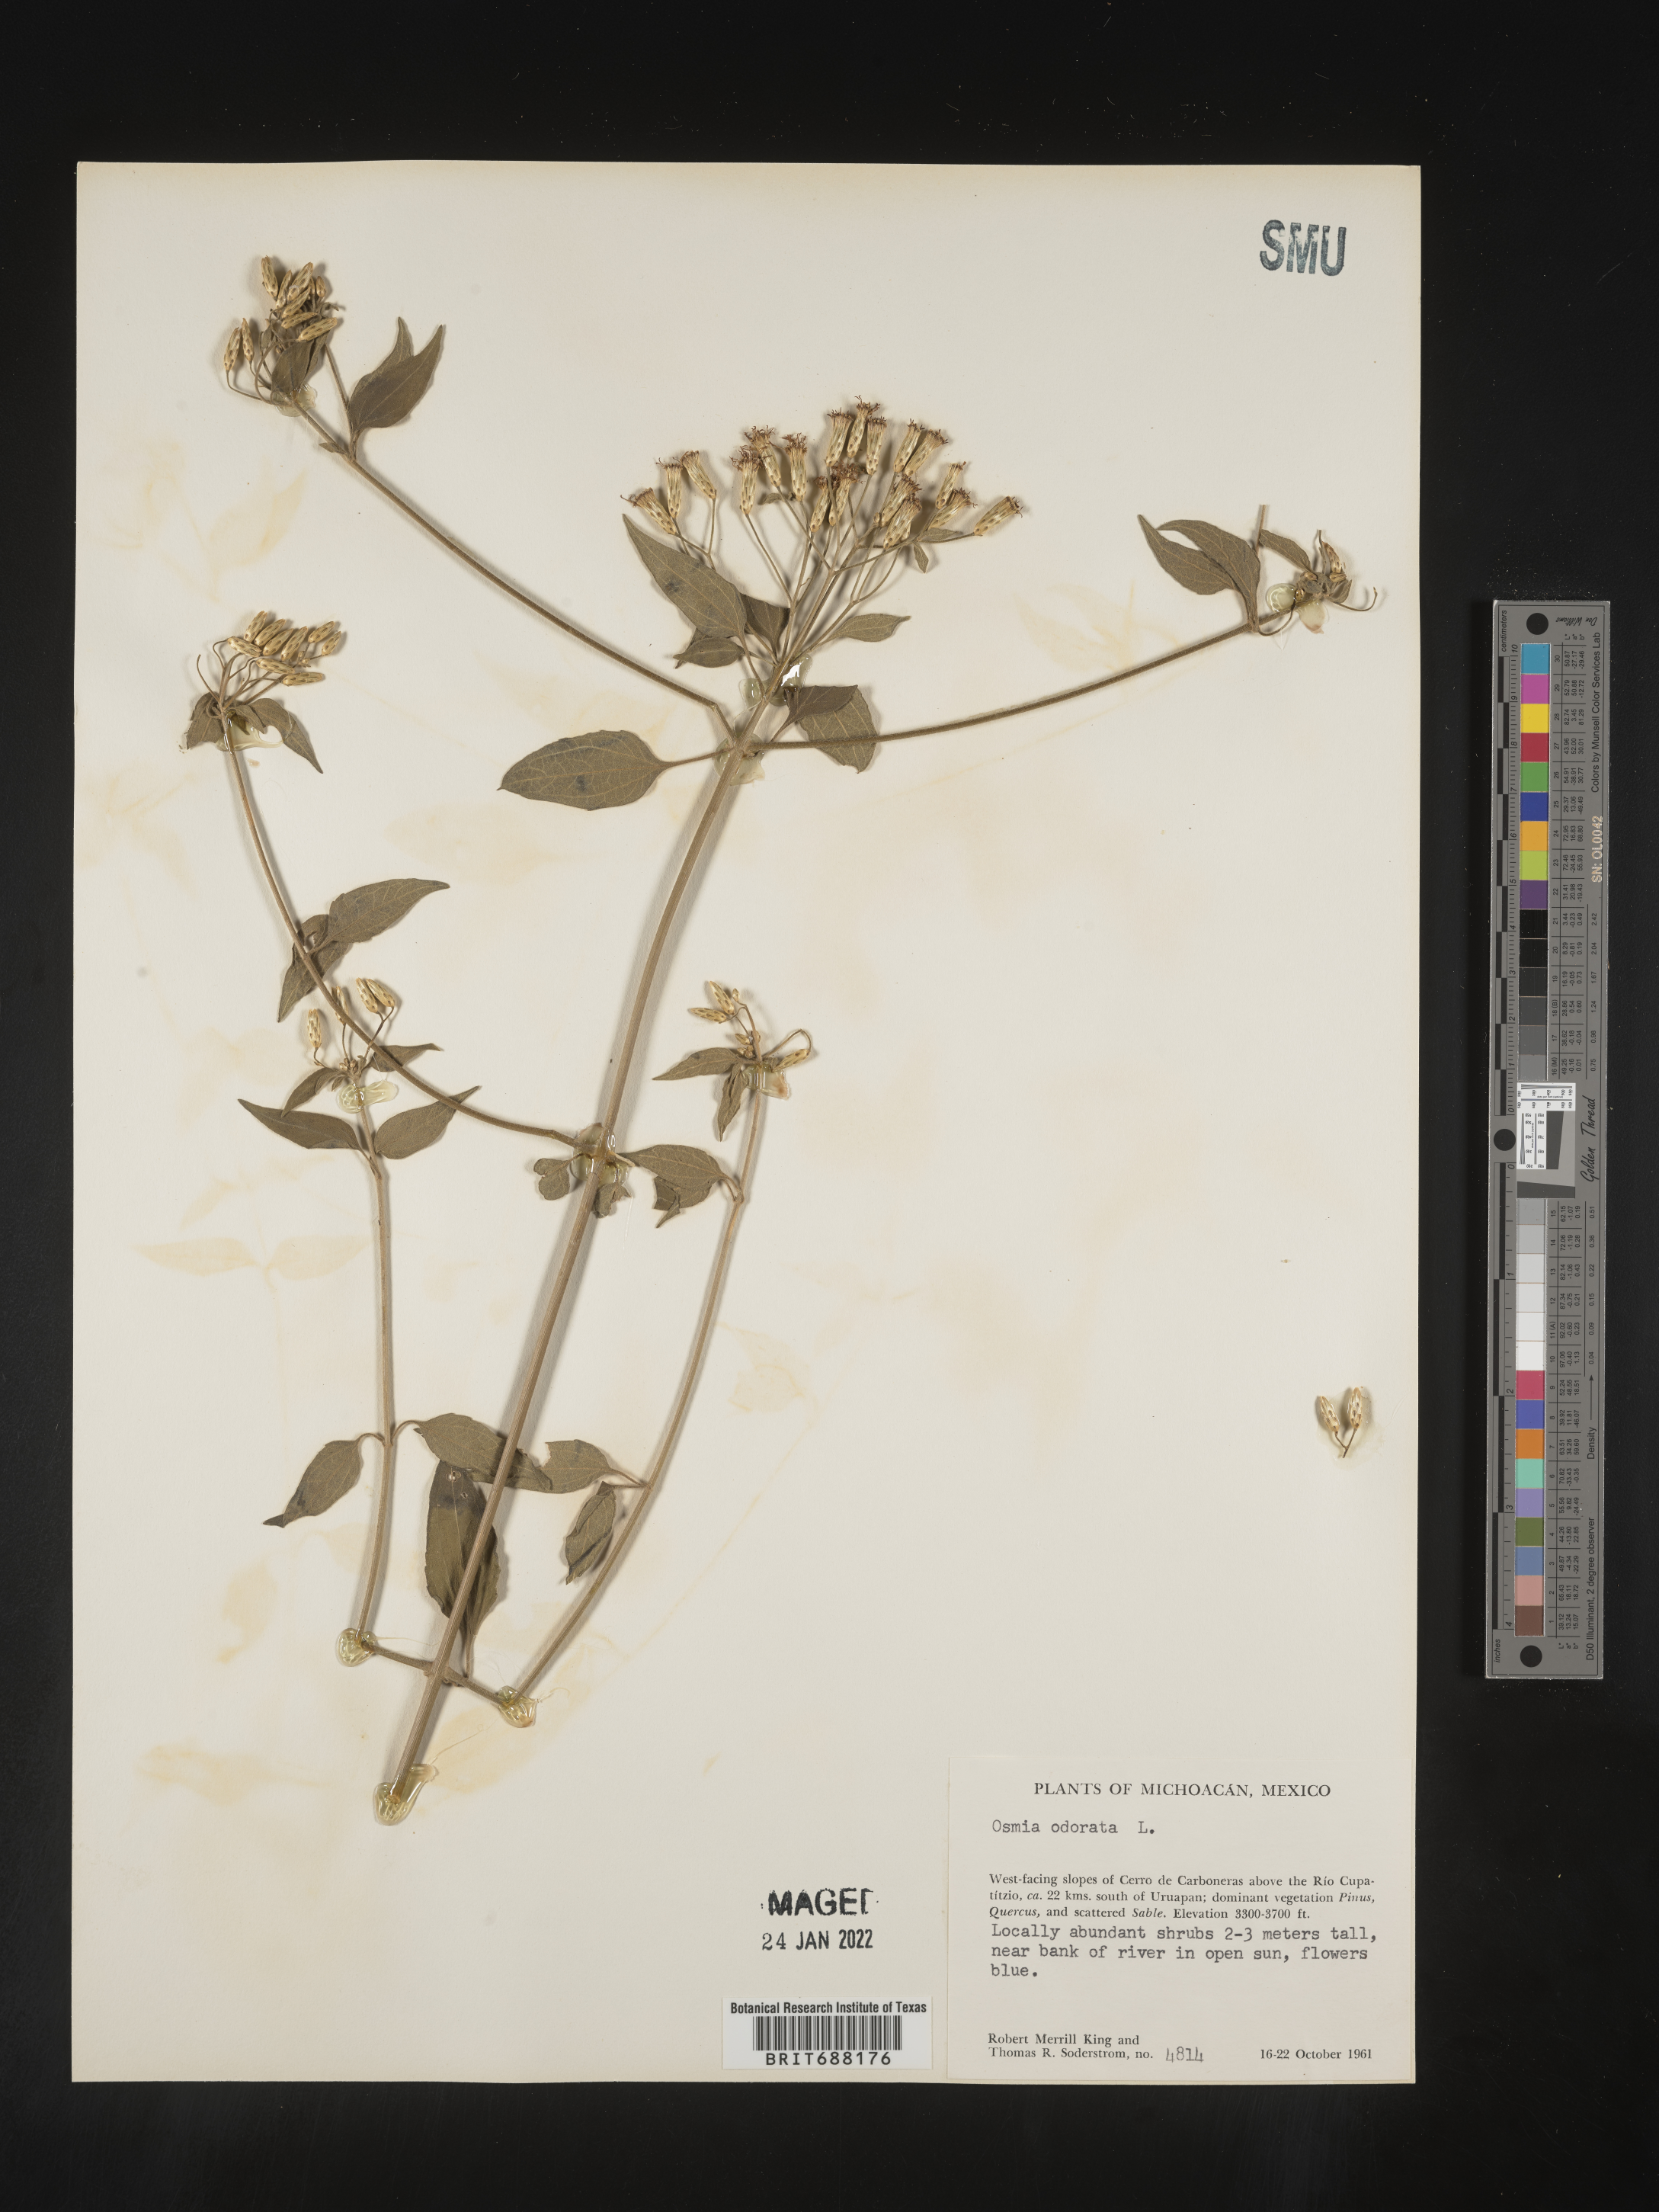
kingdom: Plantae
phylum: Tracheophyta
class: Magnoliopsida
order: Asterales
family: Asteraceae
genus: Chromolaena
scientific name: Chromolaena odorata
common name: Siamweed
